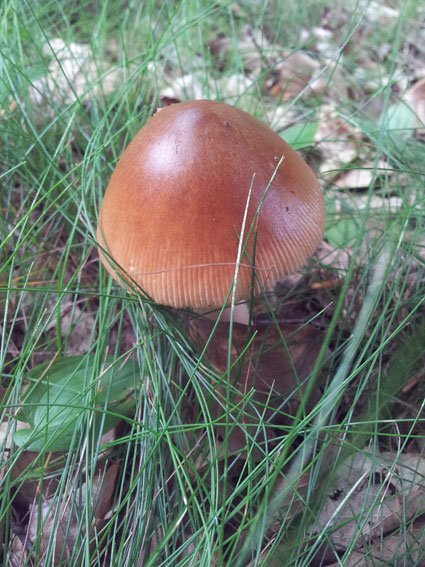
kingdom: Fungi
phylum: Basidiomycota
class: Agaricomycetes
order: Agaricales
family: Amanitaceae
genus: Amanita
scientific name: Amanita fulva
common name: brun kam-fluesvamp
